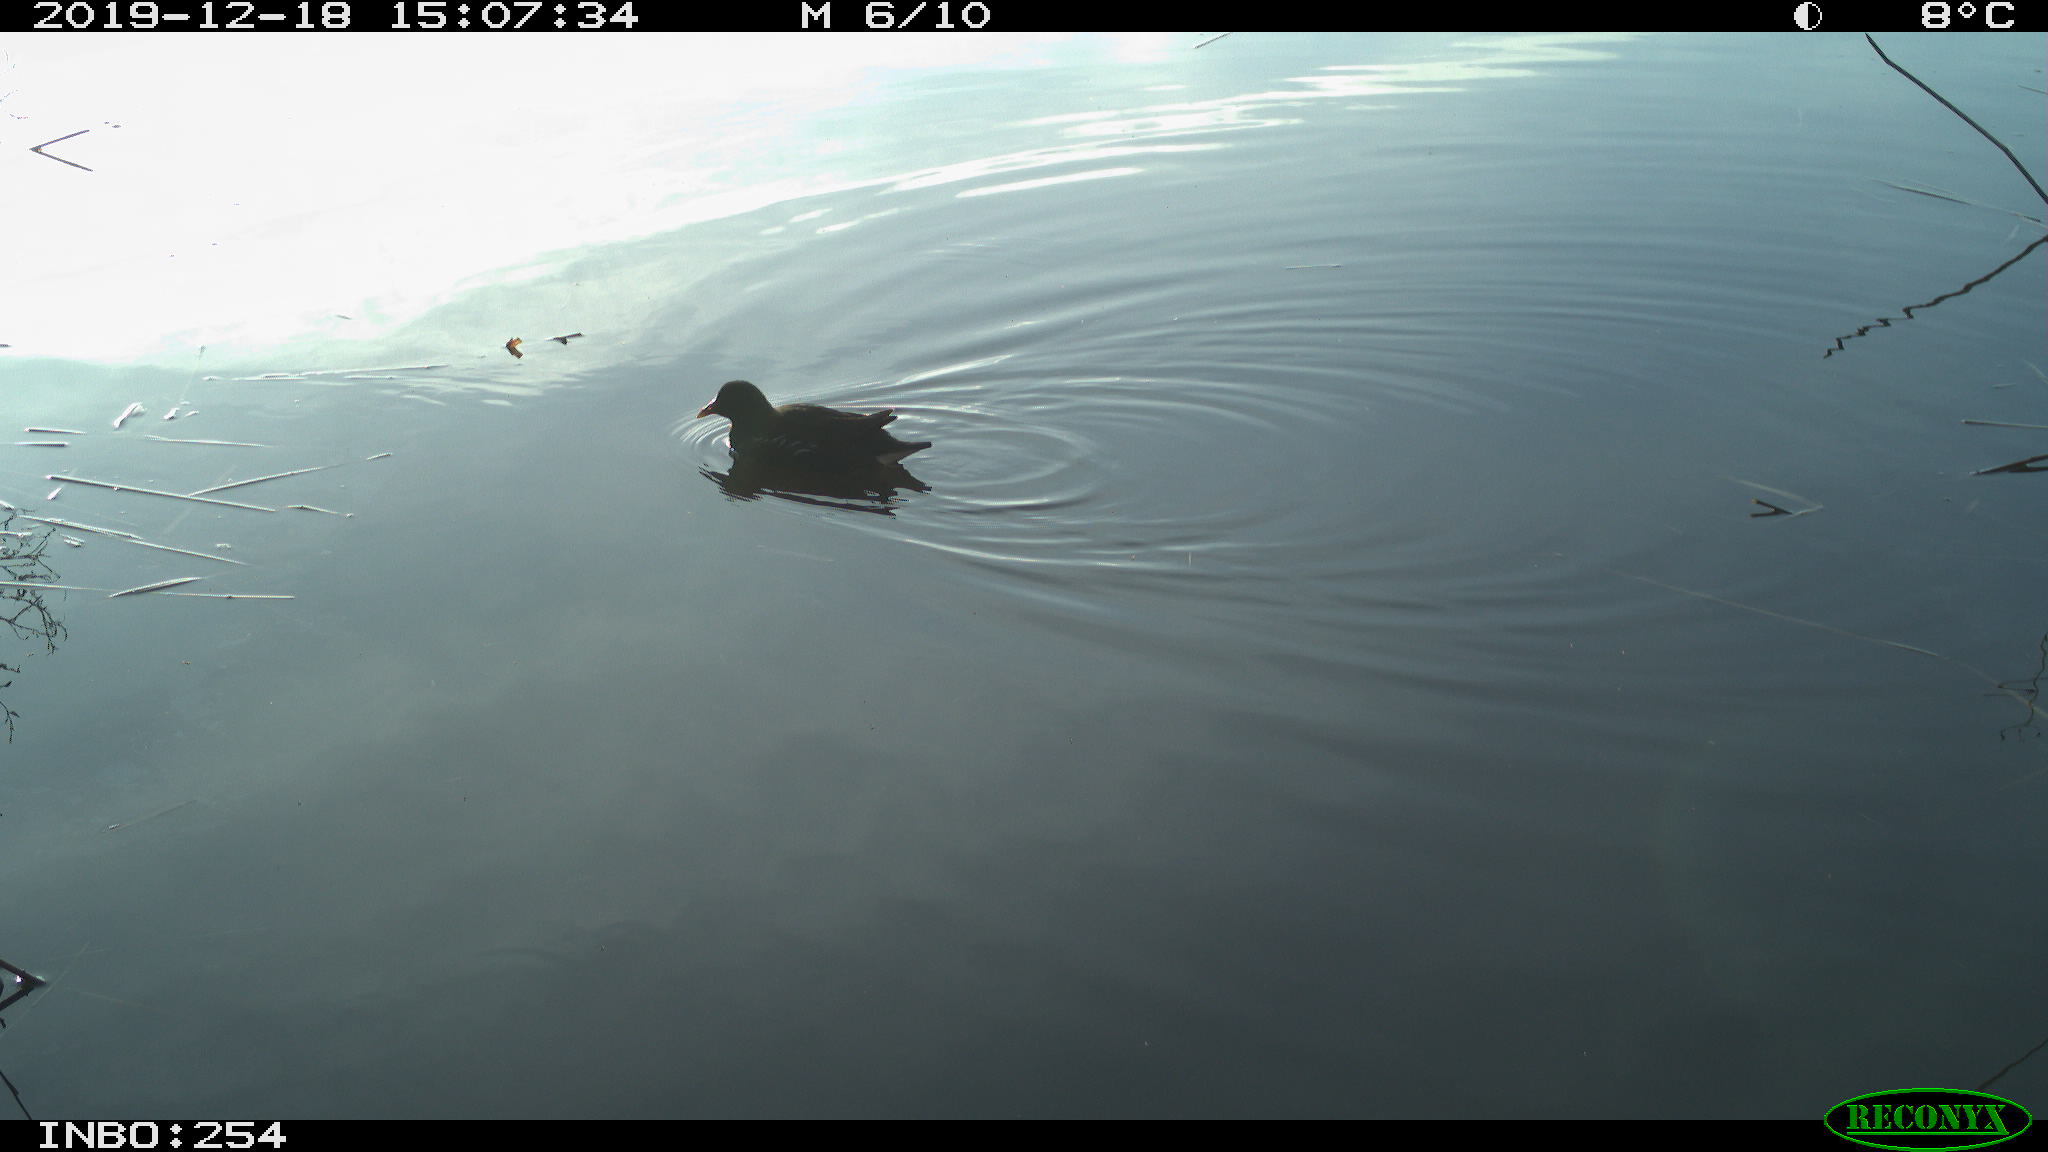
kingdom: Animalia
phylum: Chordata
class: Aves
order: Gruiformes
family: Rallidae
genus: Fulica
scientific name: Fulica atra
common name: Eurasian coot
